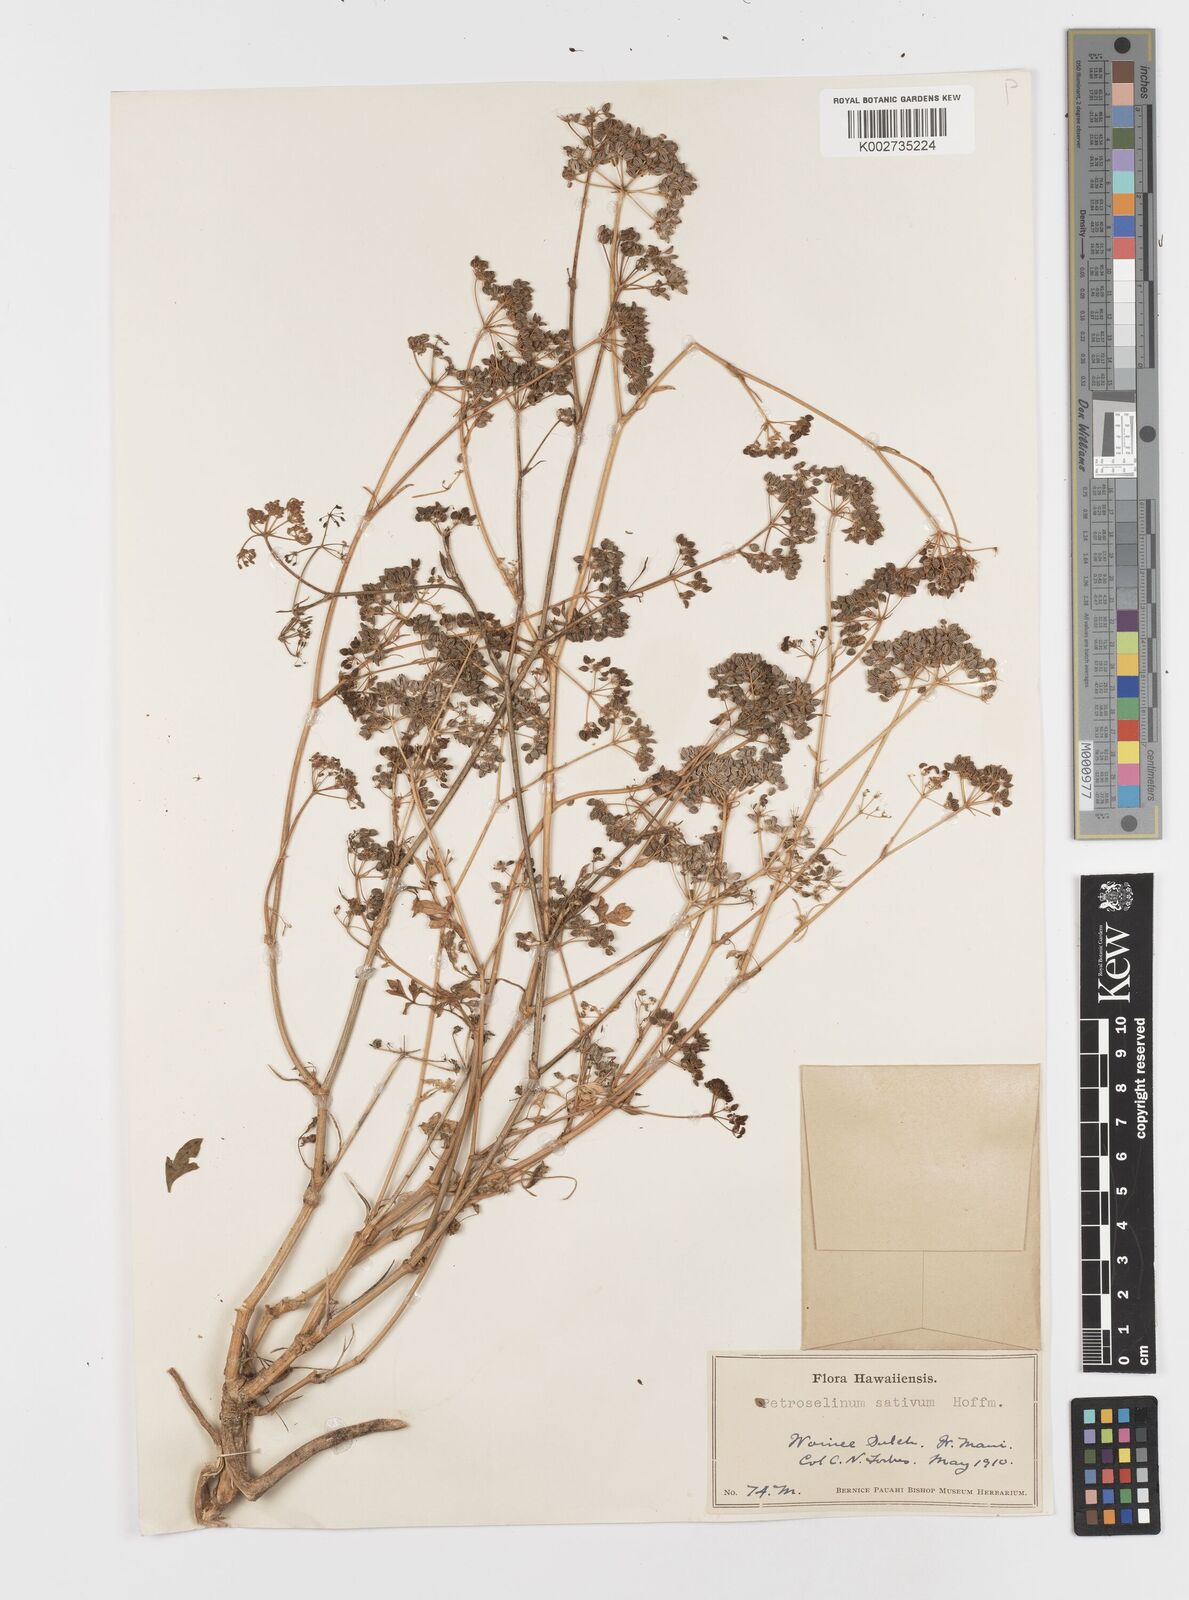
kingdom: Plantae
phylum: Tracheophyta
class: Magnoliopsida
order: Apiales
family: Apiaceae
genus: Petroselinum
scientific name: Petroselinum crispum
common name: Parsley
